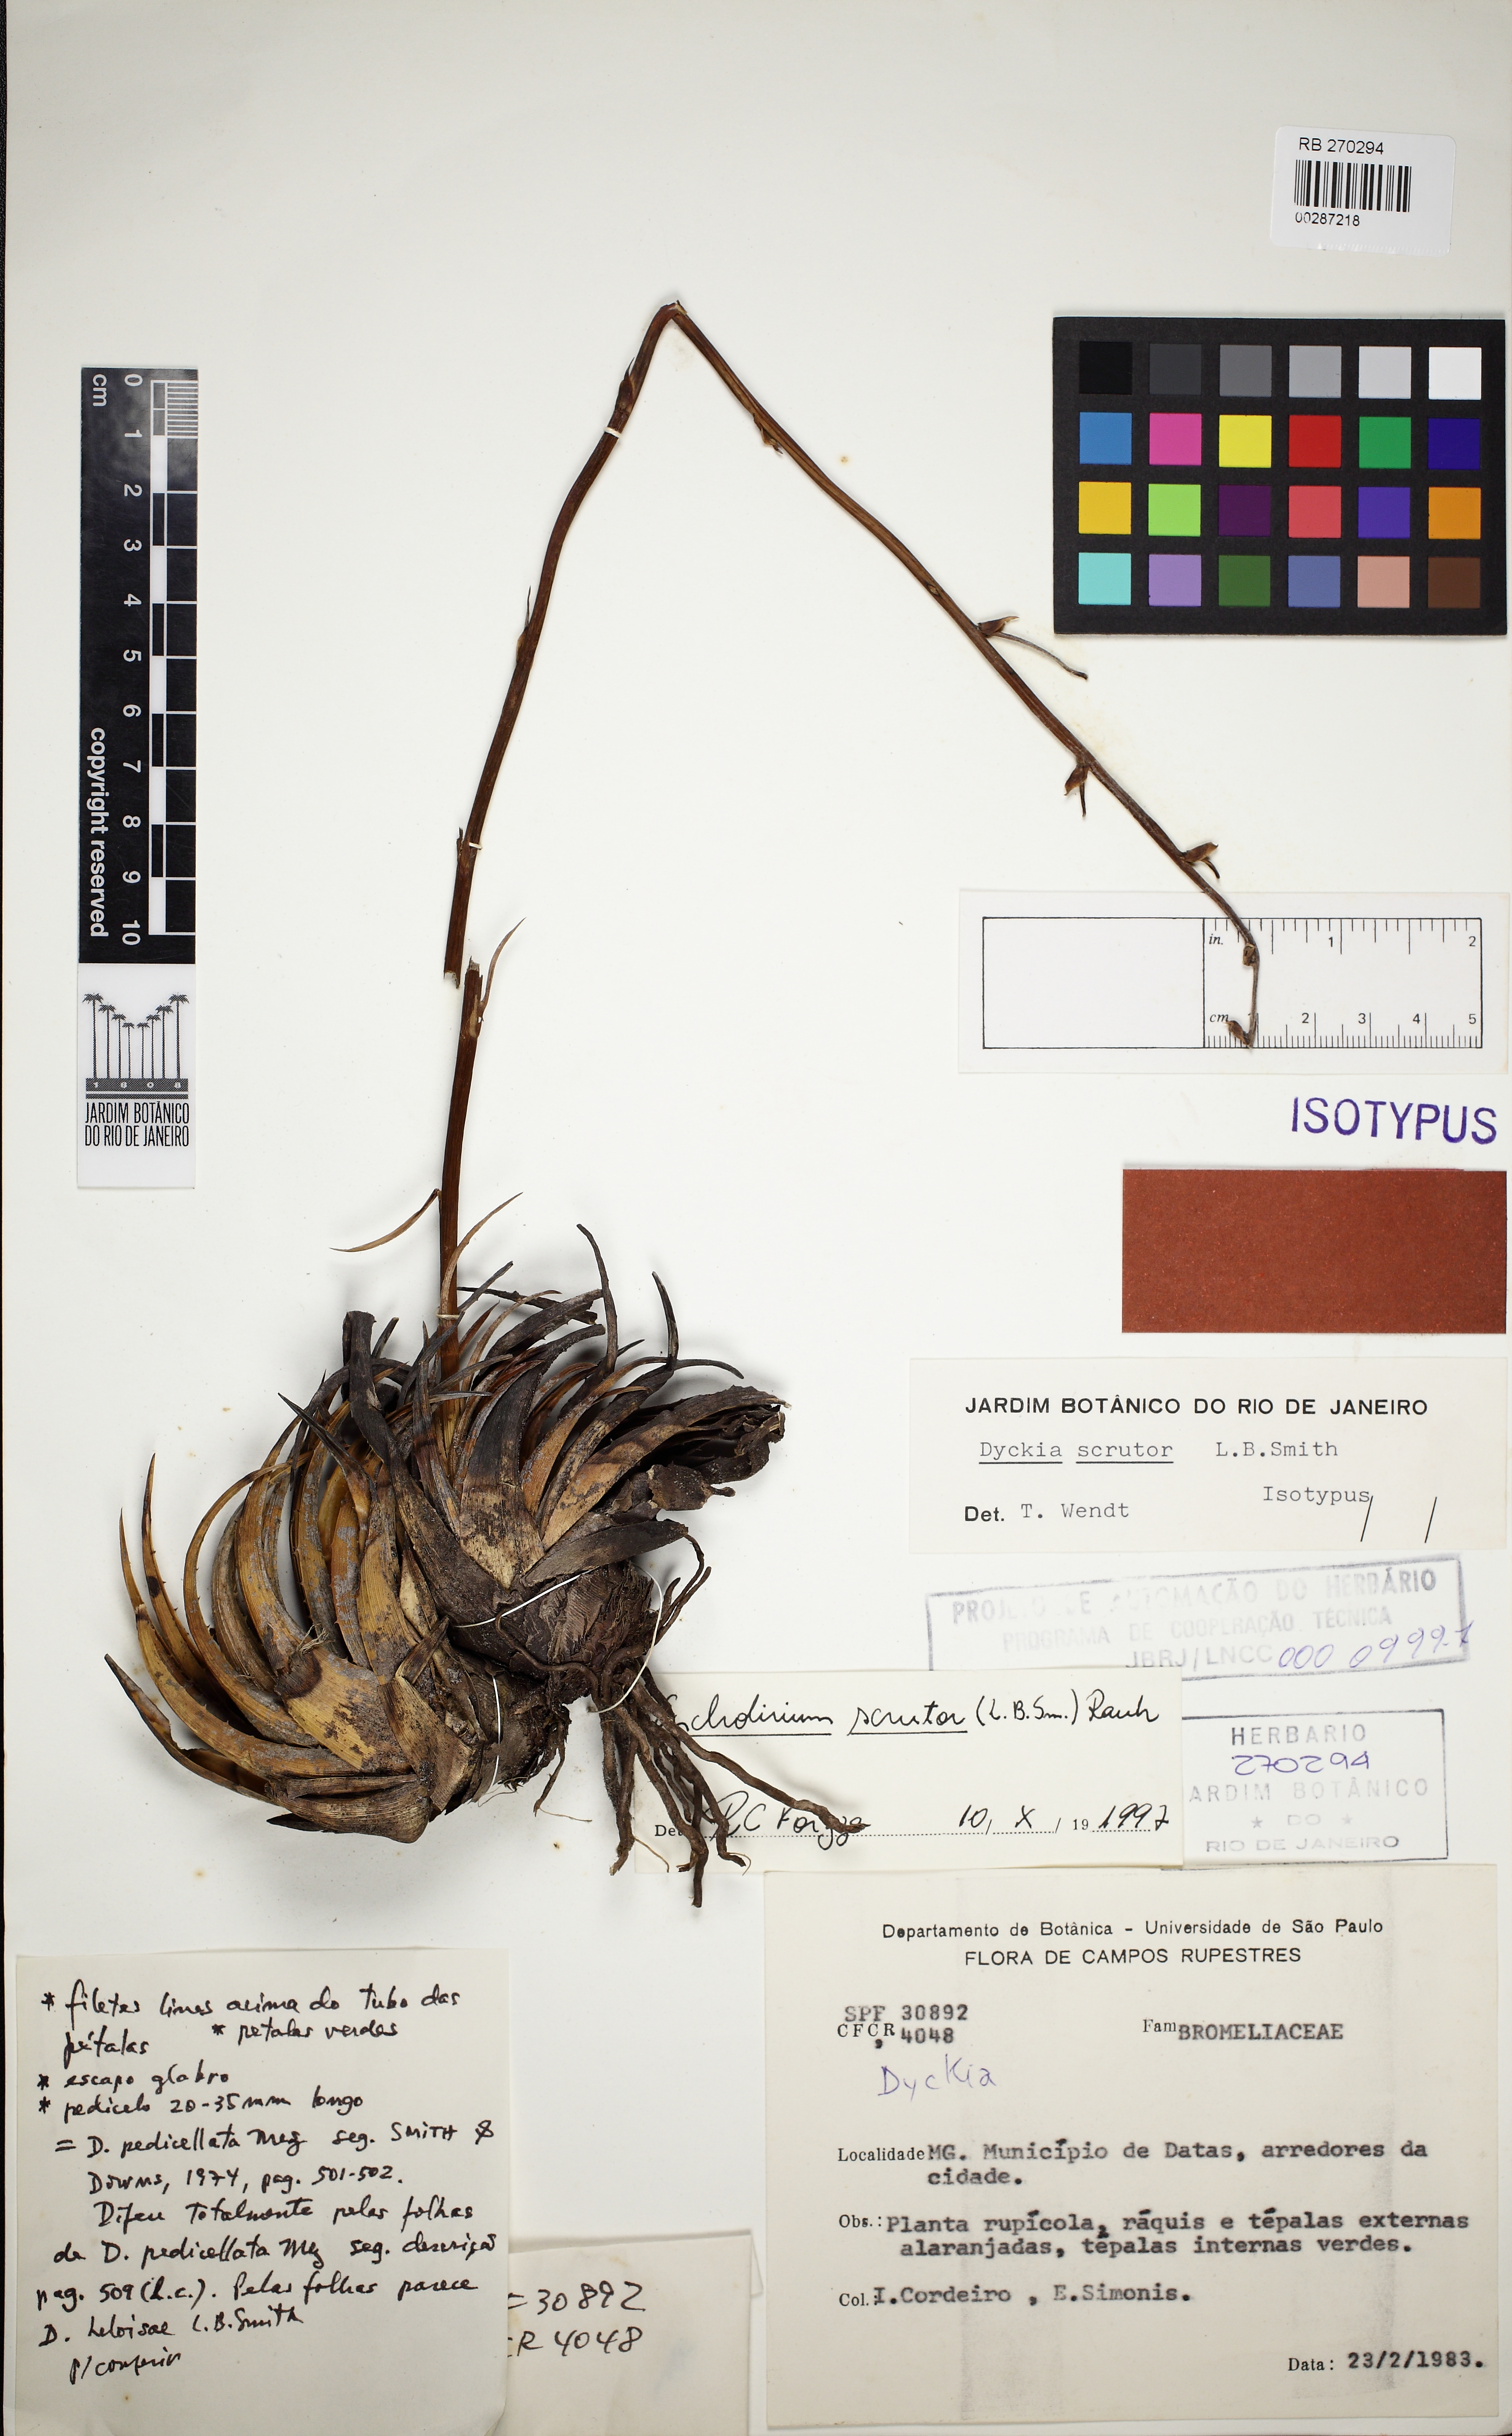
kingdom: Plantae
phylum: Tracheophyta
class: Liliopsida
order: Poales
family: Bromeliaceae
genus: Encholirium
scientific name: Encholirium scrutor
